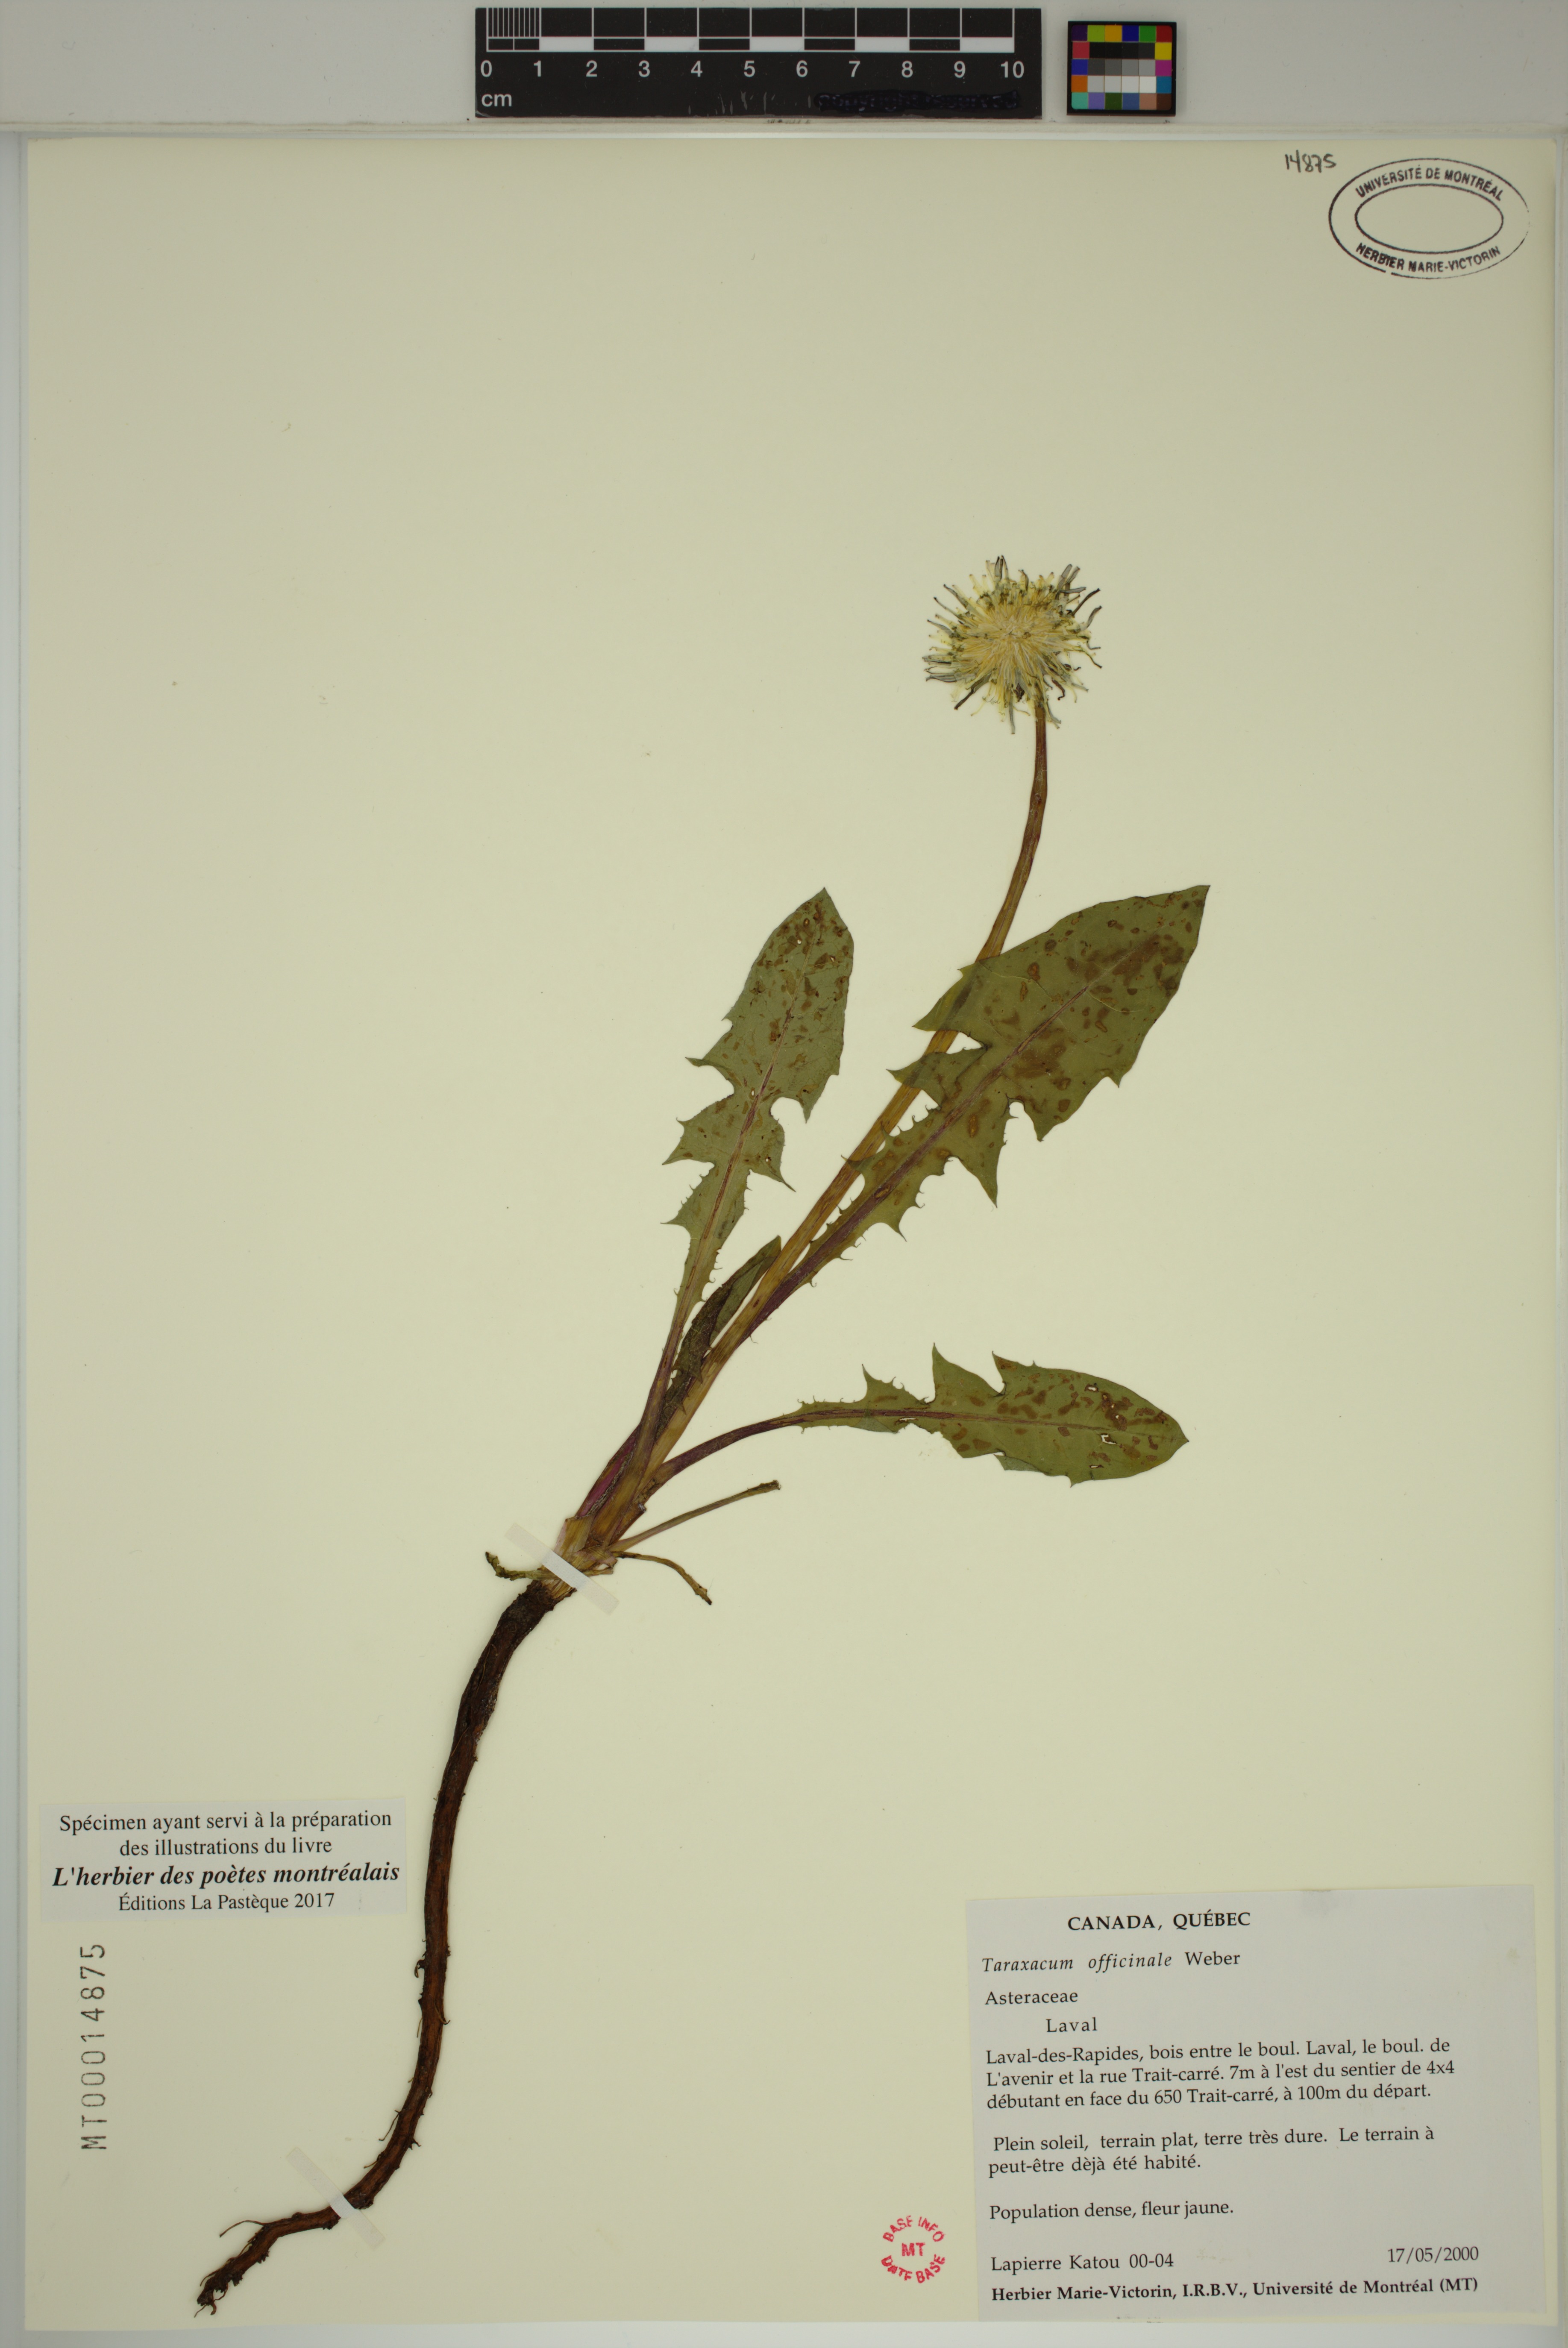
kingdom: Plantae
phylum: Tracheophyta
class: Magnoliopsida
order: Asterales
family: Asteraceae
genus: Taraxacum
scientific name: Taraxacum officinale
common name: Common dandelion
